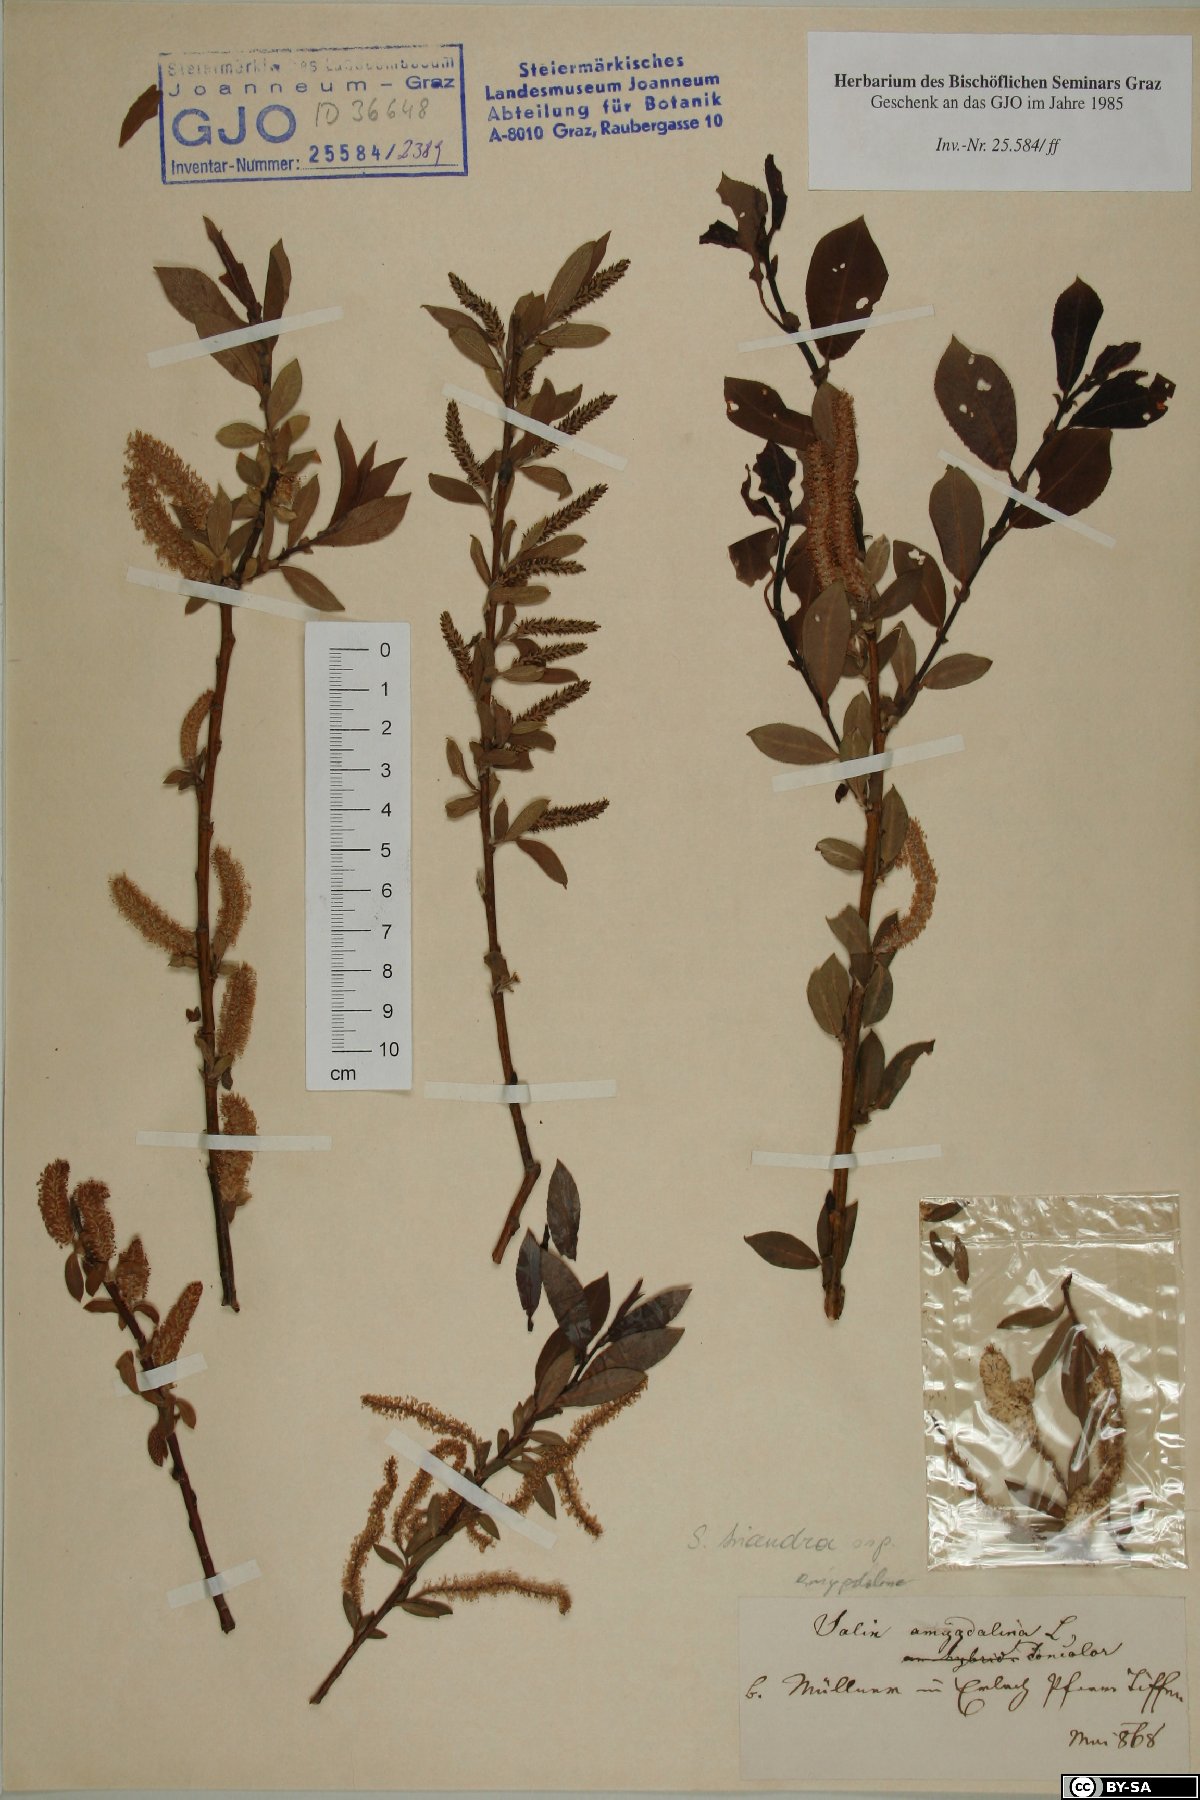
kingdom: Plantae
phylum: Tracheophyta
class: Magnoliopsida
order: Malpighiales
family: Salicaceae
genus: Salix
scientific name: Salix triandra
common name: Almond willow
